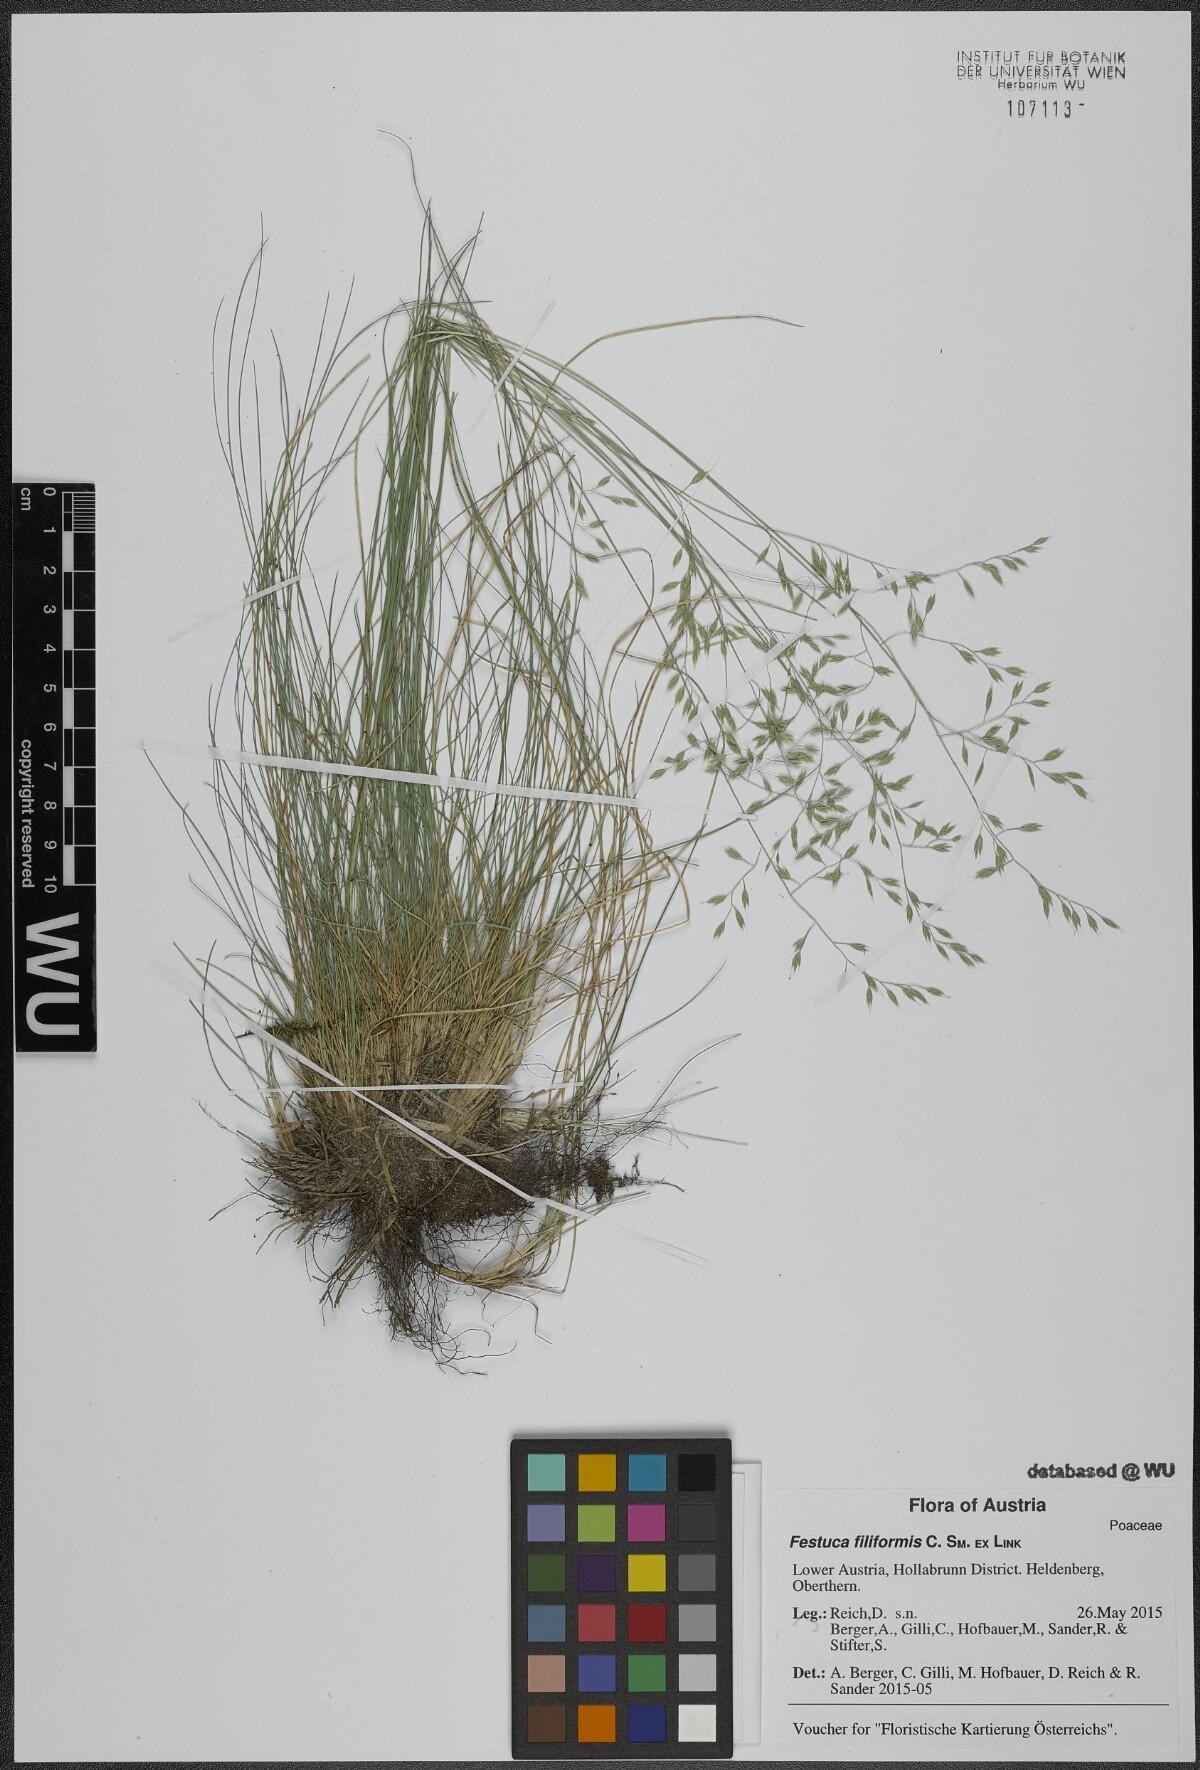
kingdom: Plantae
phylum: Tracheophyta
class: Liliopsida
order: Poales
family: Poaceae
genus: Festuca
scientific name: Festuca agustini
